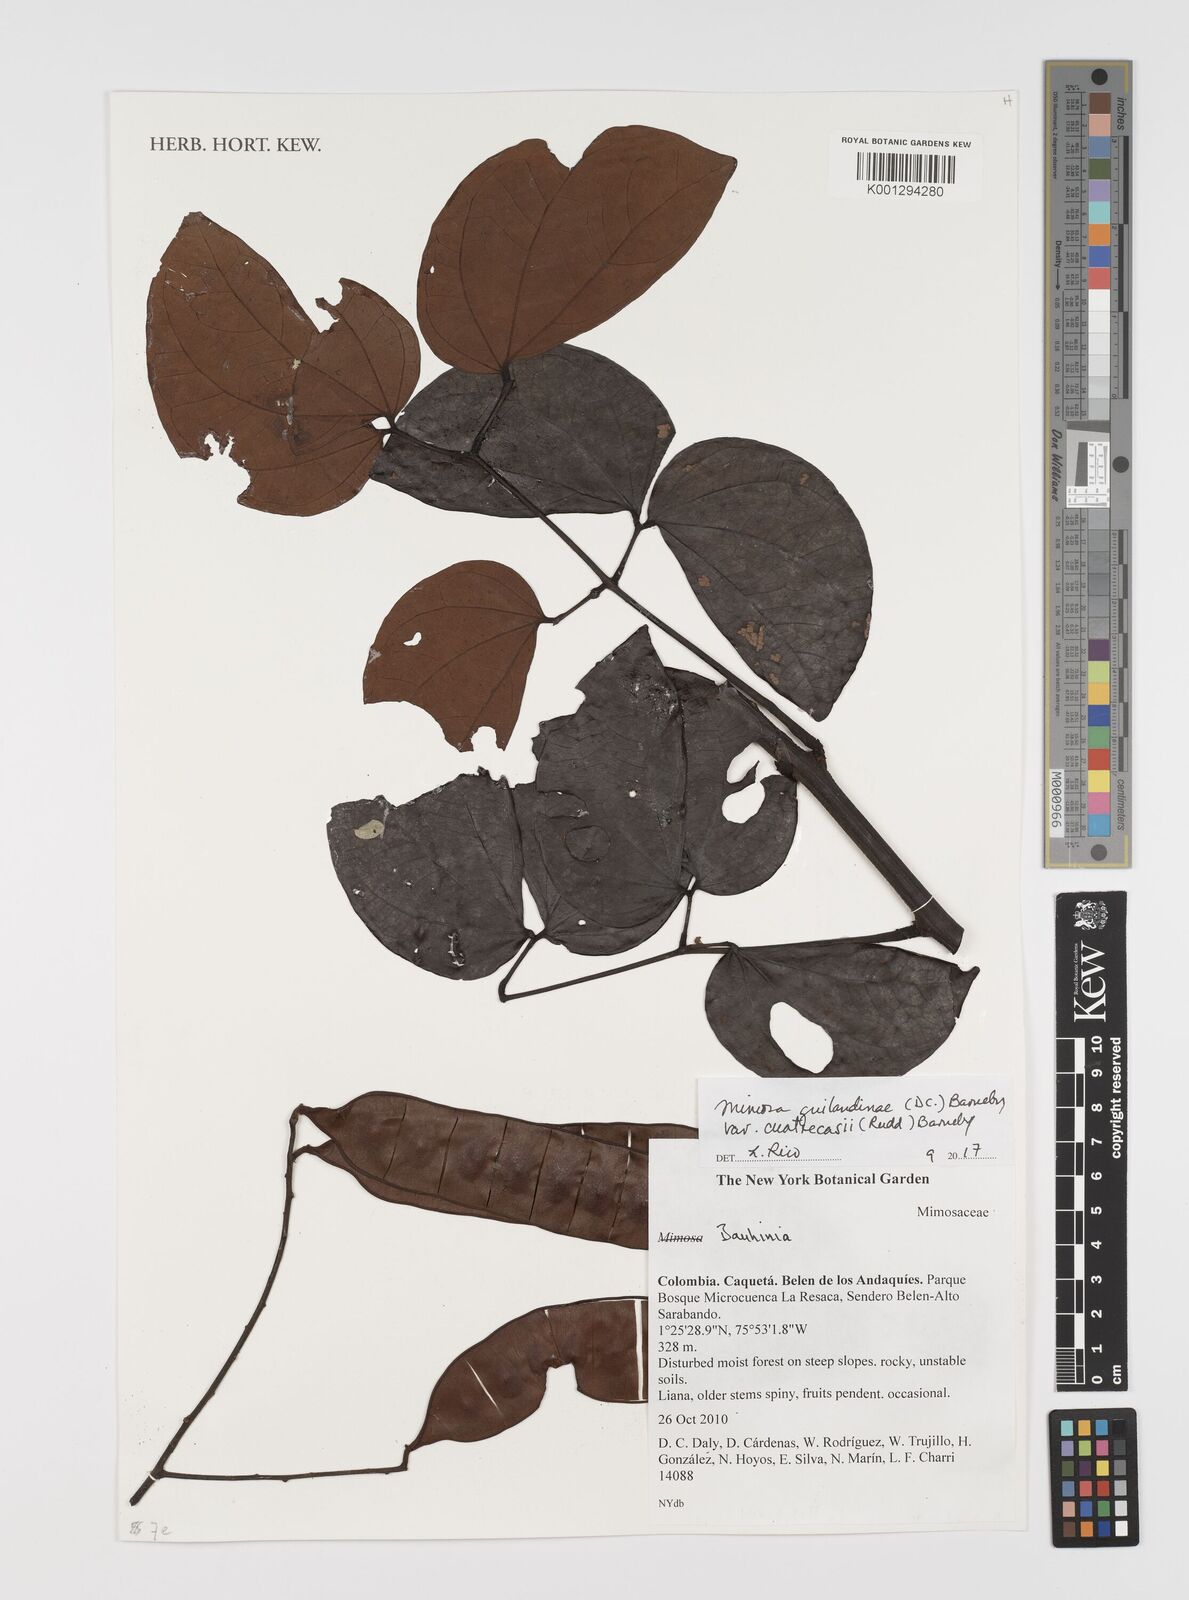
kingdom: Plantae
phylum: Tracheophyta
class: Magnoliopsida
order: Fabales
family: Fabaceae
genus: Mimosa
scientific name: Mimosa guilandinae
